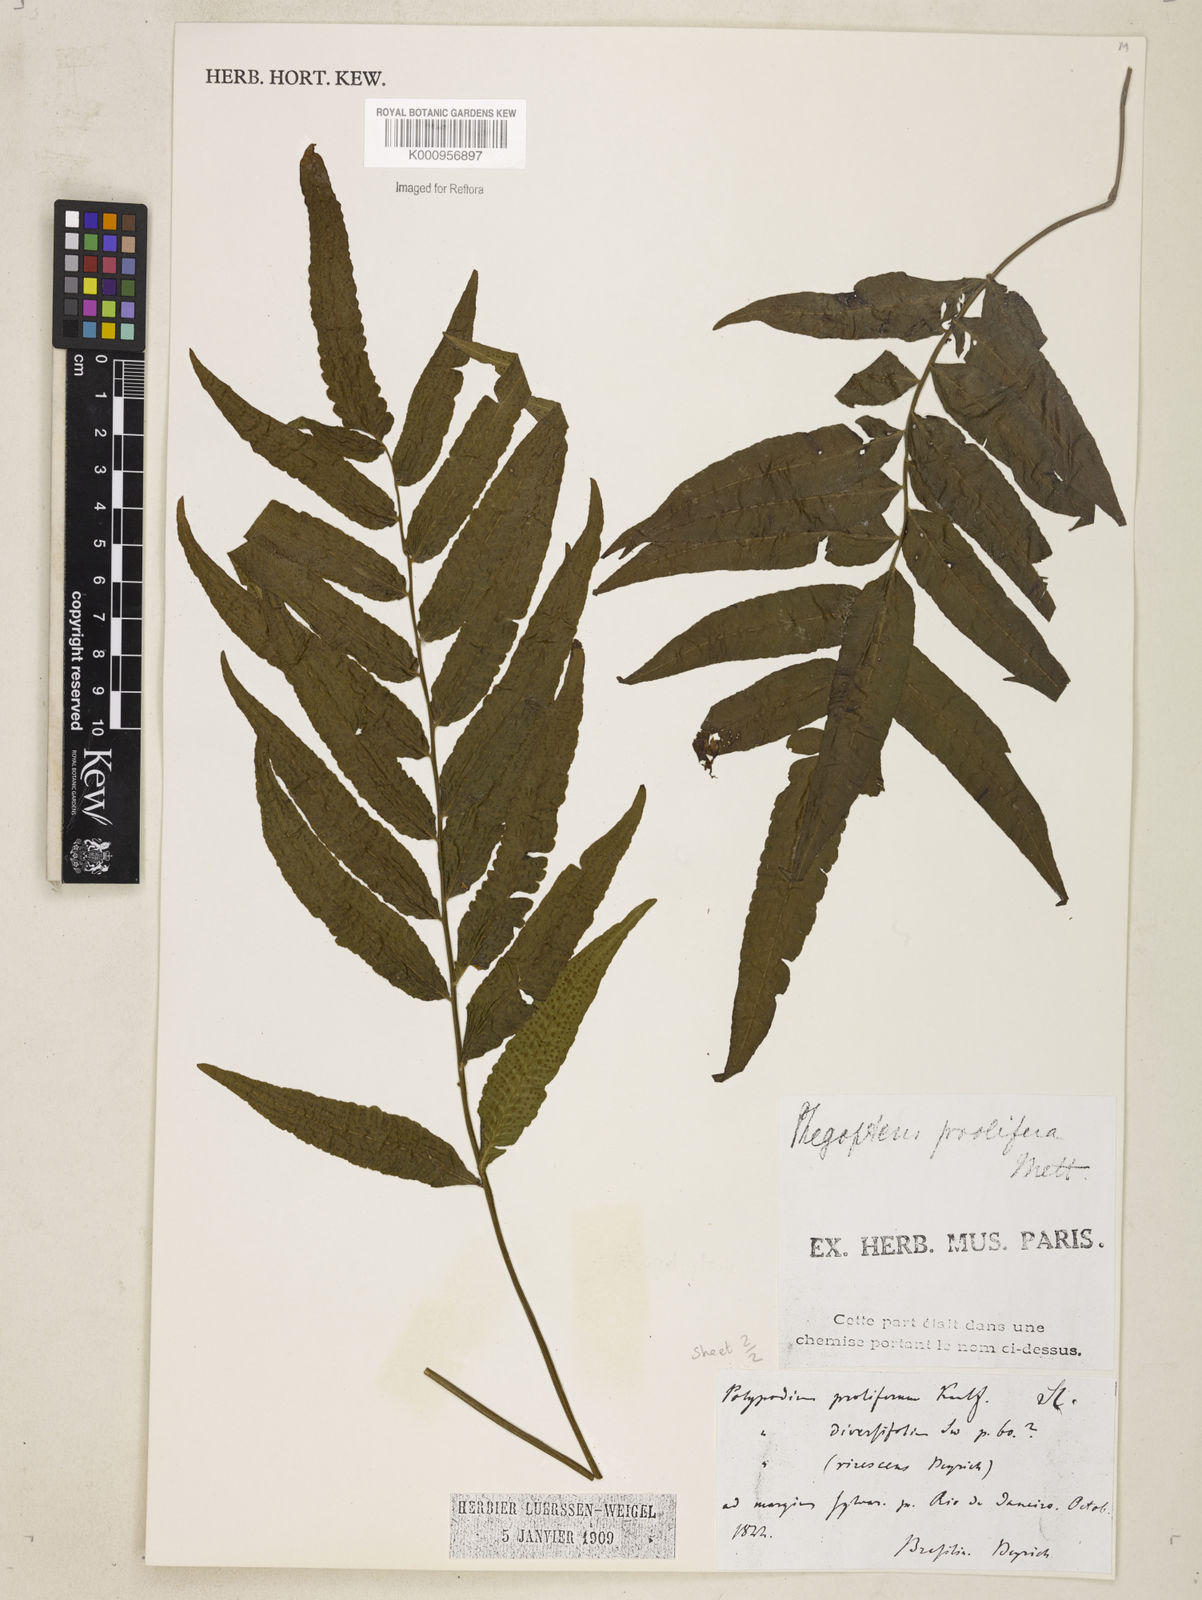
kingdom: Plantae
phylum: Tracheophyta
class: Polypodiopsida
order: Polypodiales
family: Thelypteridaceae
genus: Meniscium
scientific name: Meniscium
